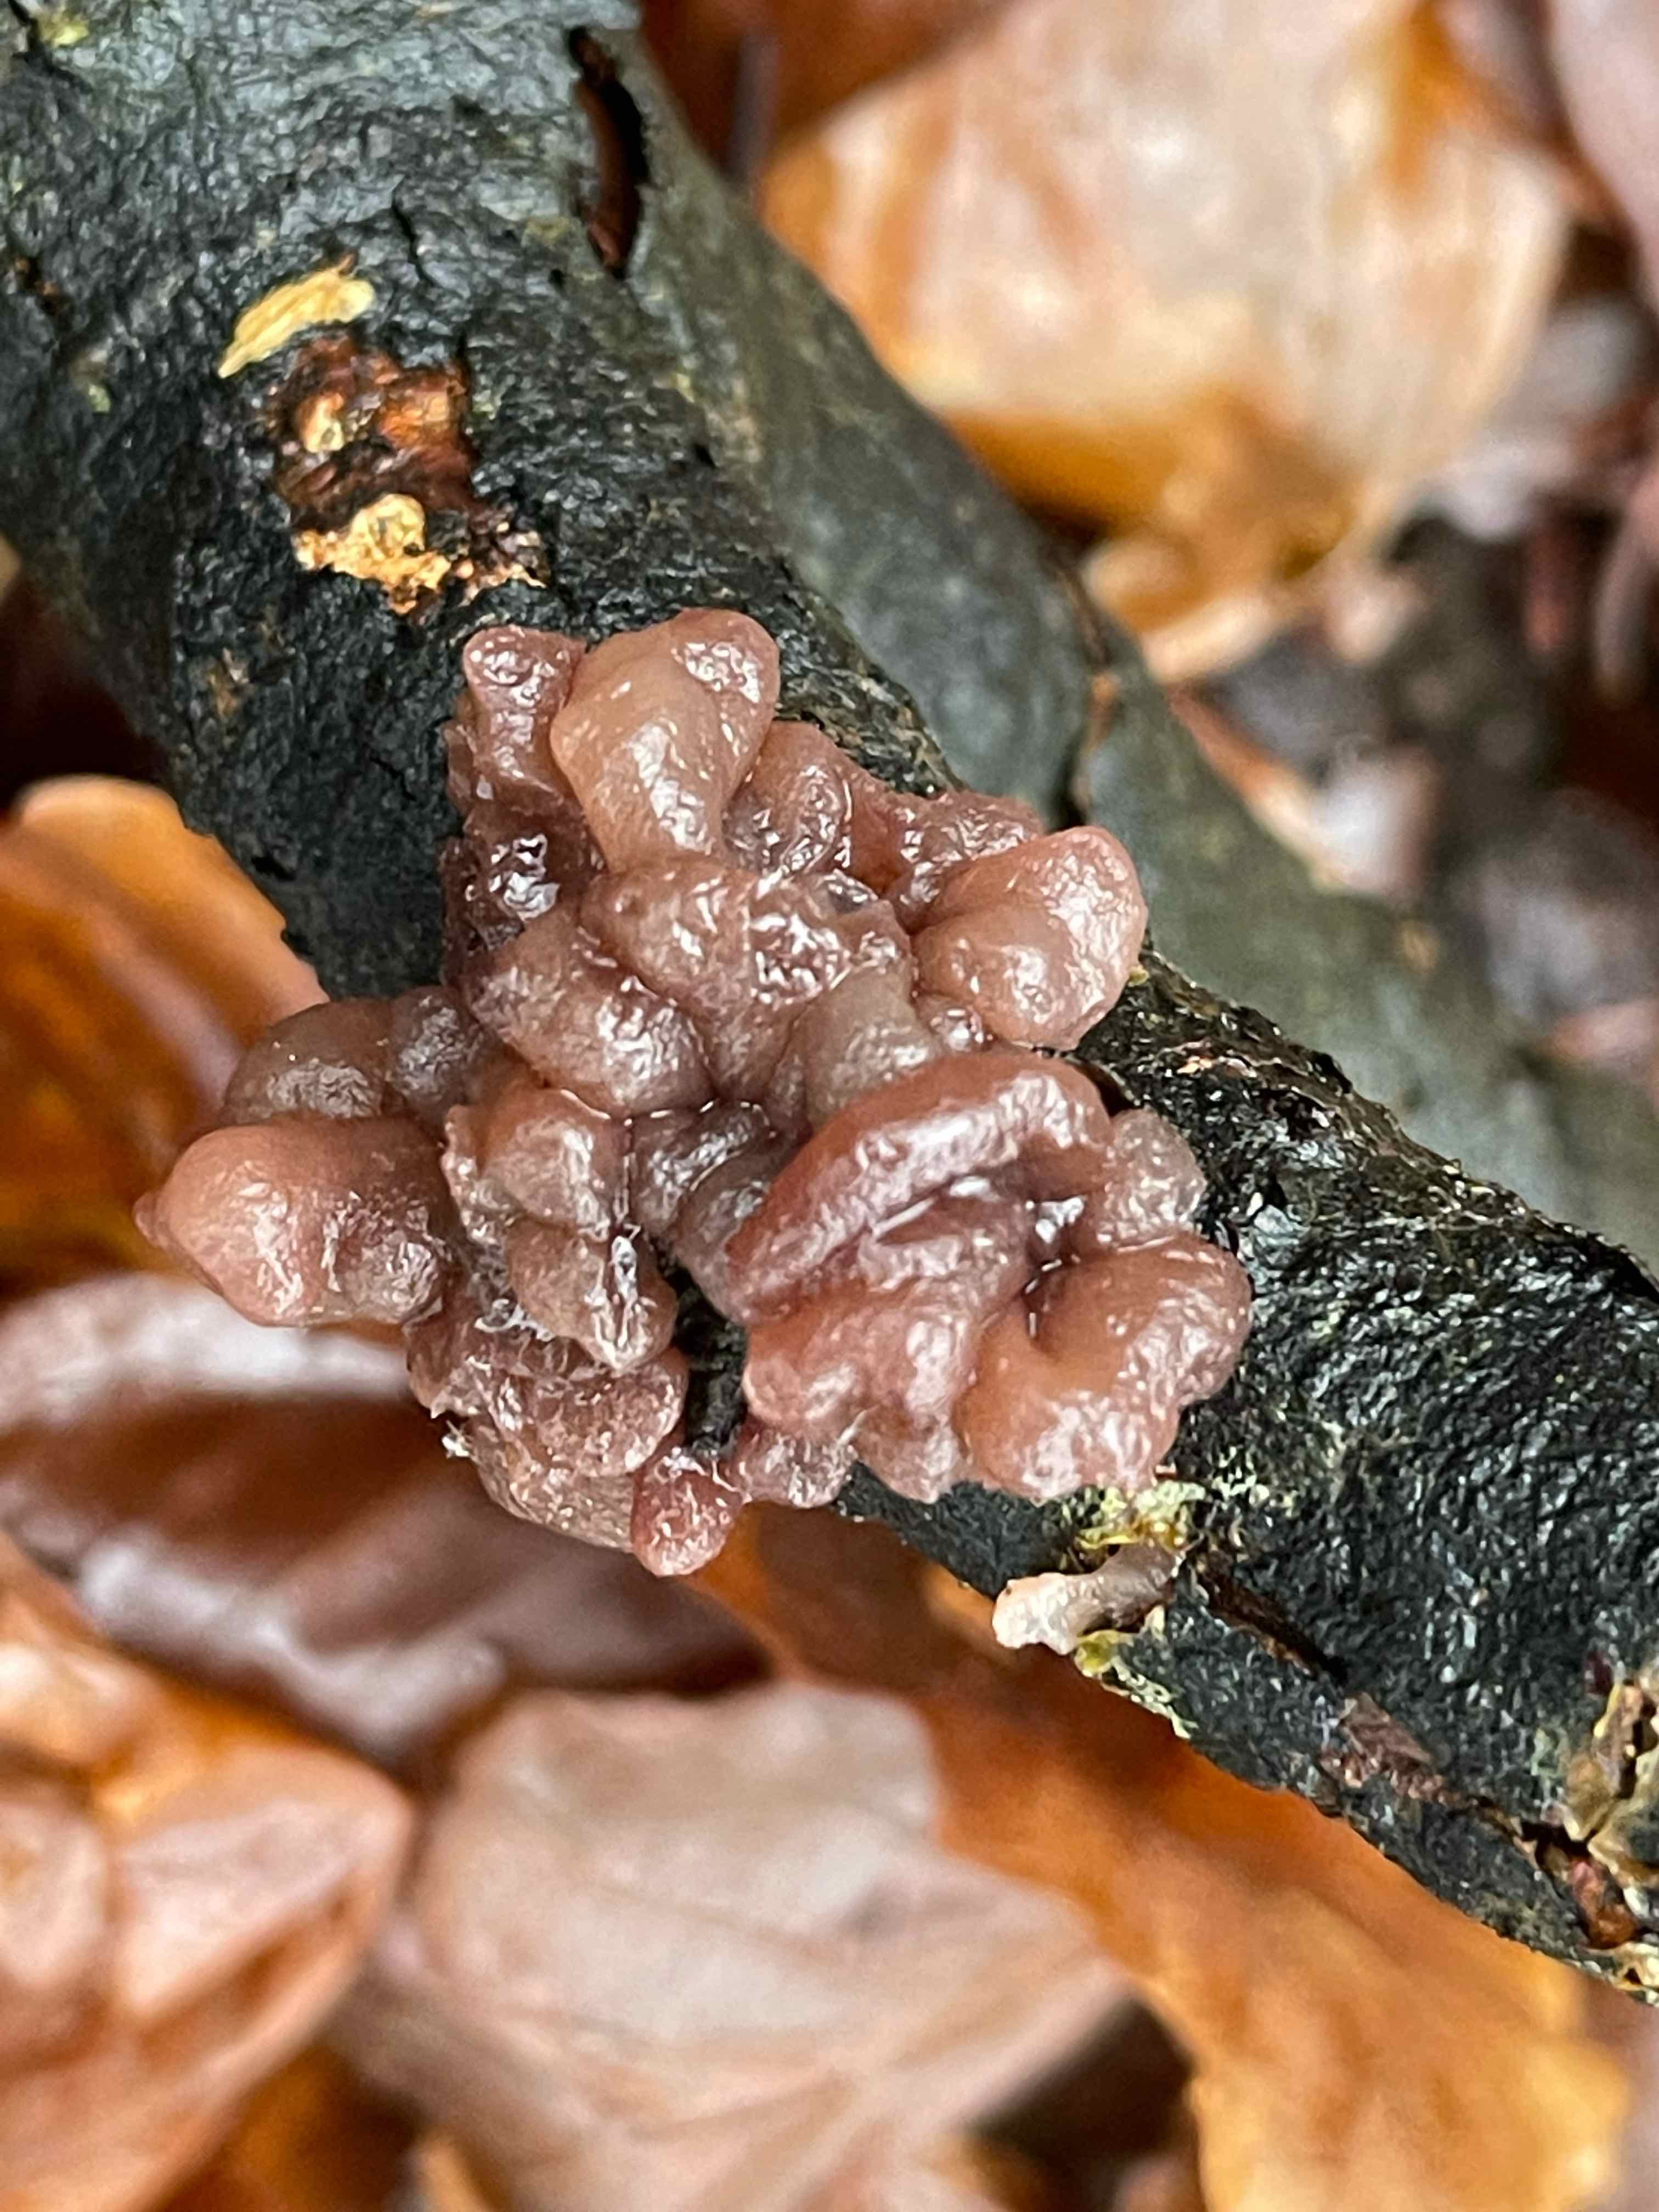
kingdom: Fungi
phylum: Ascomycota
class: Leotiomycetes
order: Helotiales
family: Gelatinodiscaceae
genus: Ascocoryne
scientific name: Ascocoryne sarcoides
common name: rødlilla sejskive
